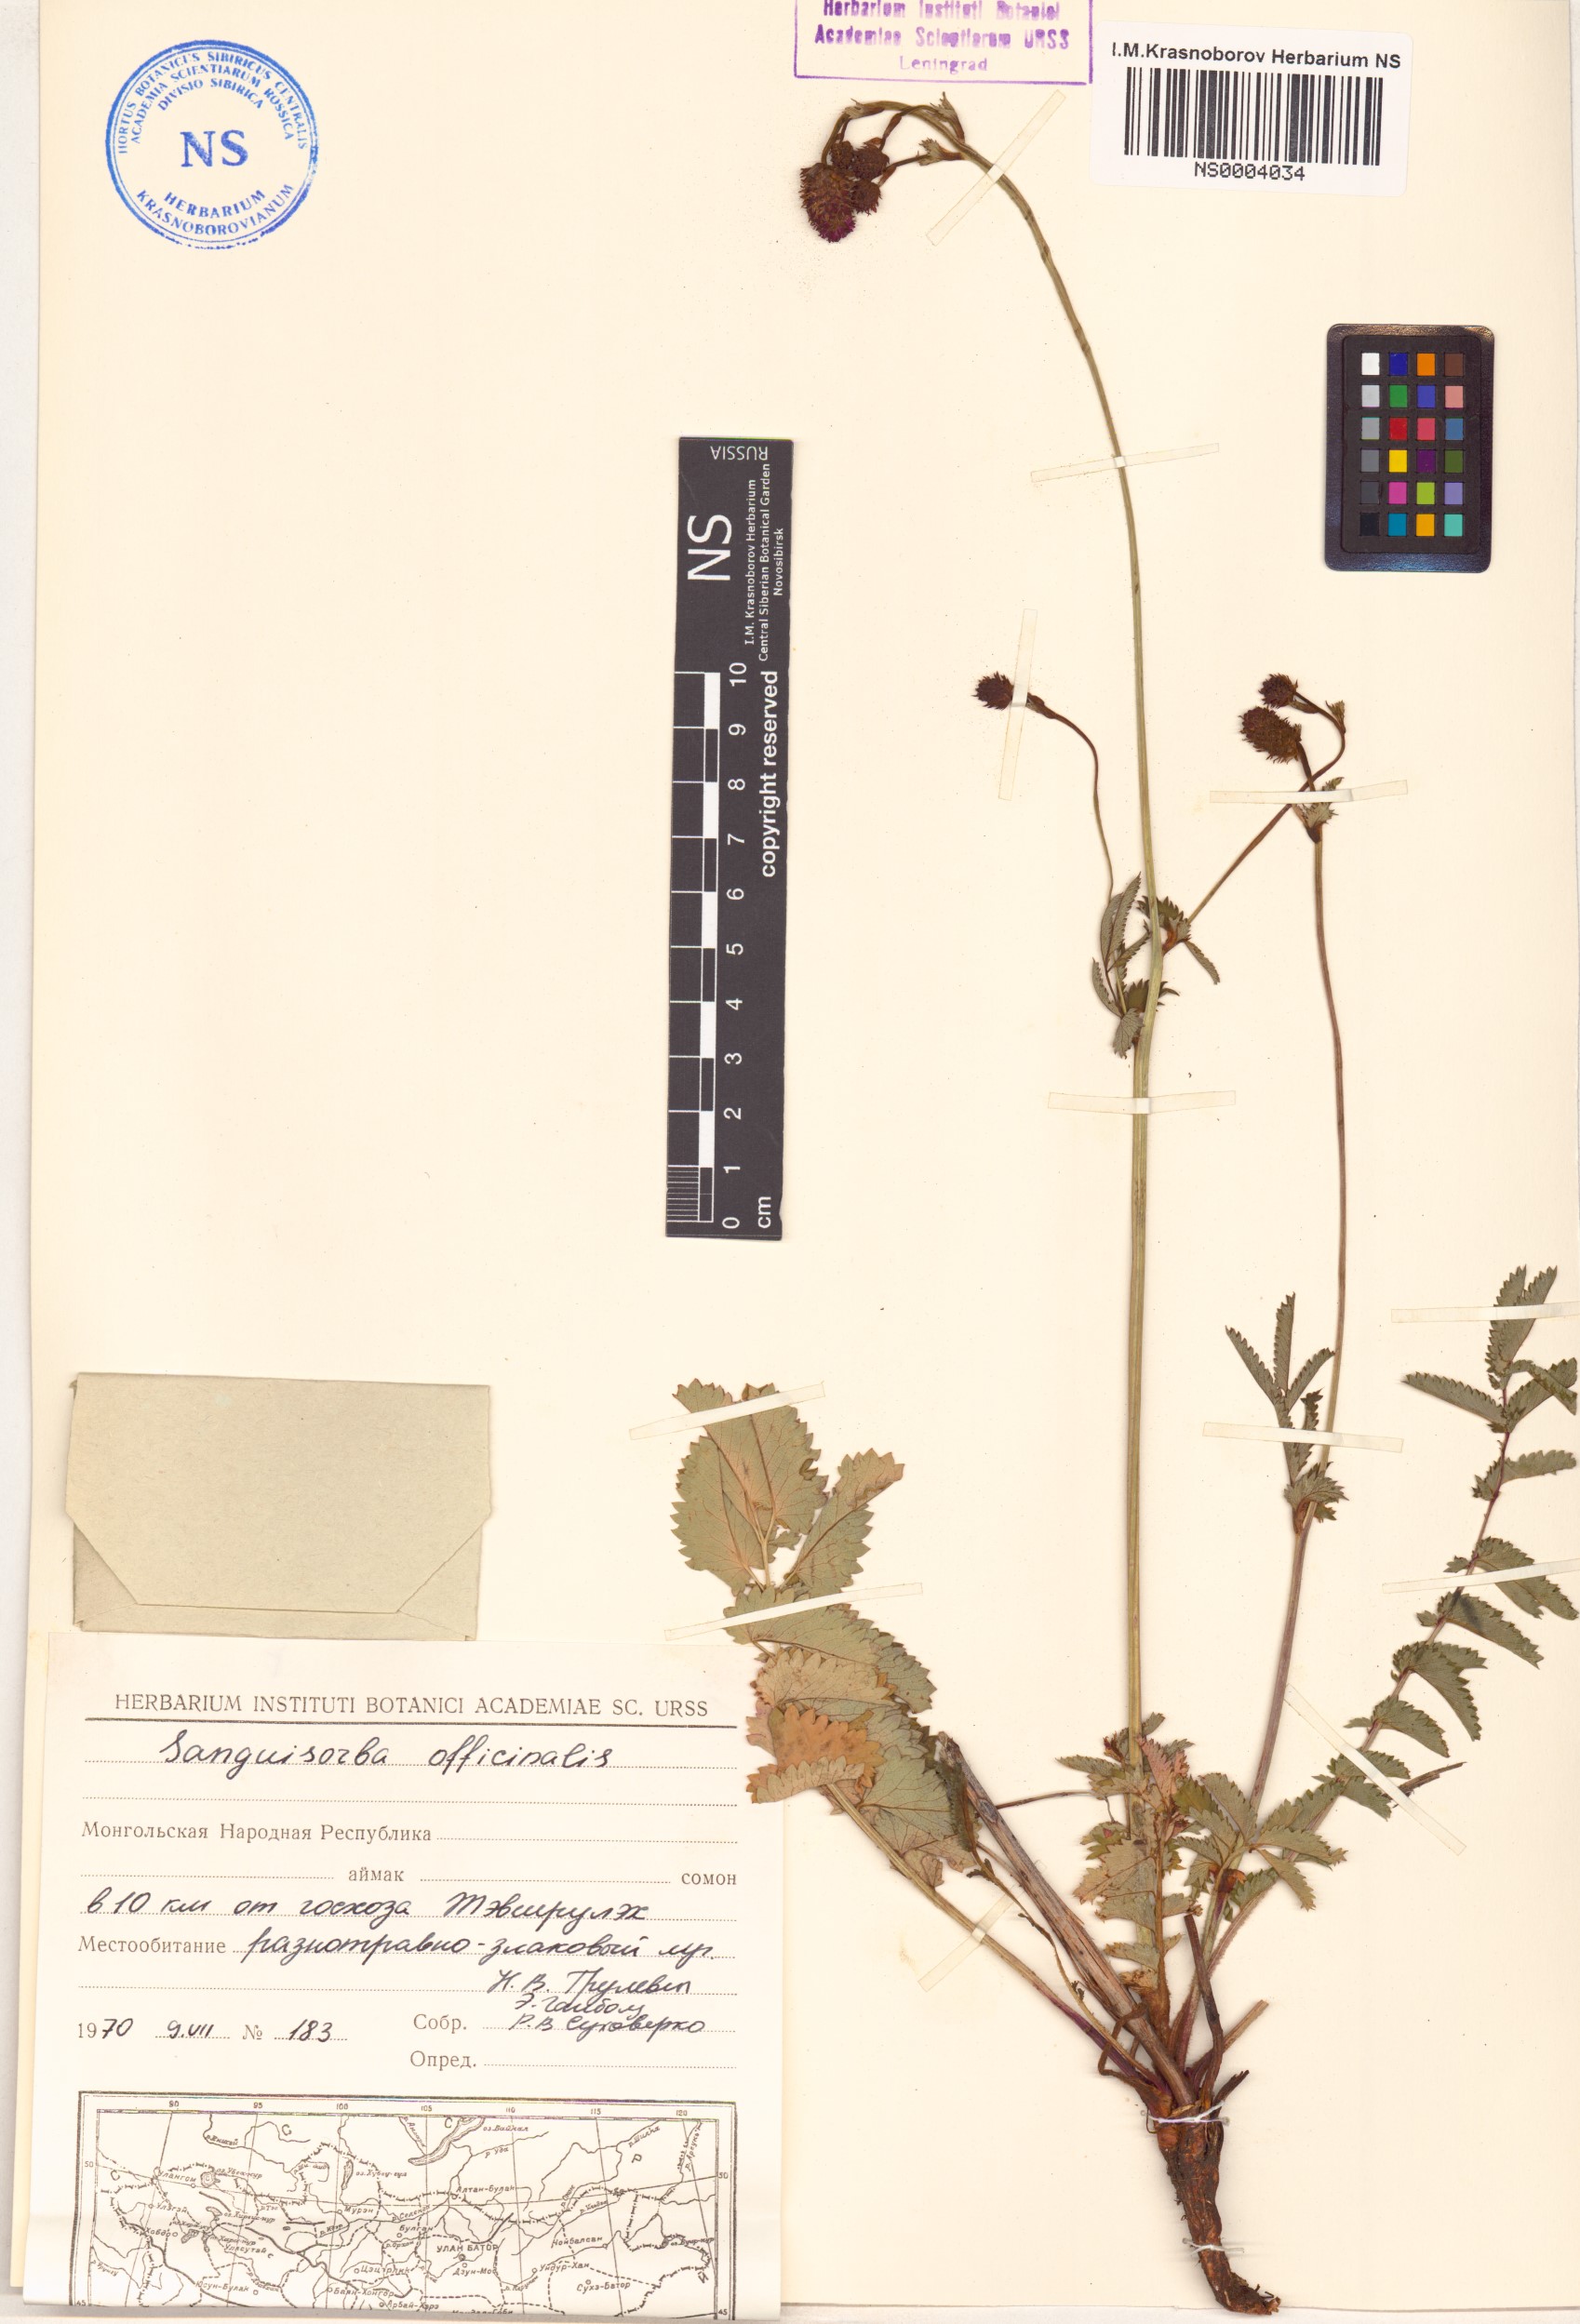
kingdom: Plantae
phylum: Tracheophyta
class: Magnoliopsida
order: Rosales
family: Rosaceae
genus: Sanguisorba
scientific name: Sanguisorba officinalis
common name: Great burnet
